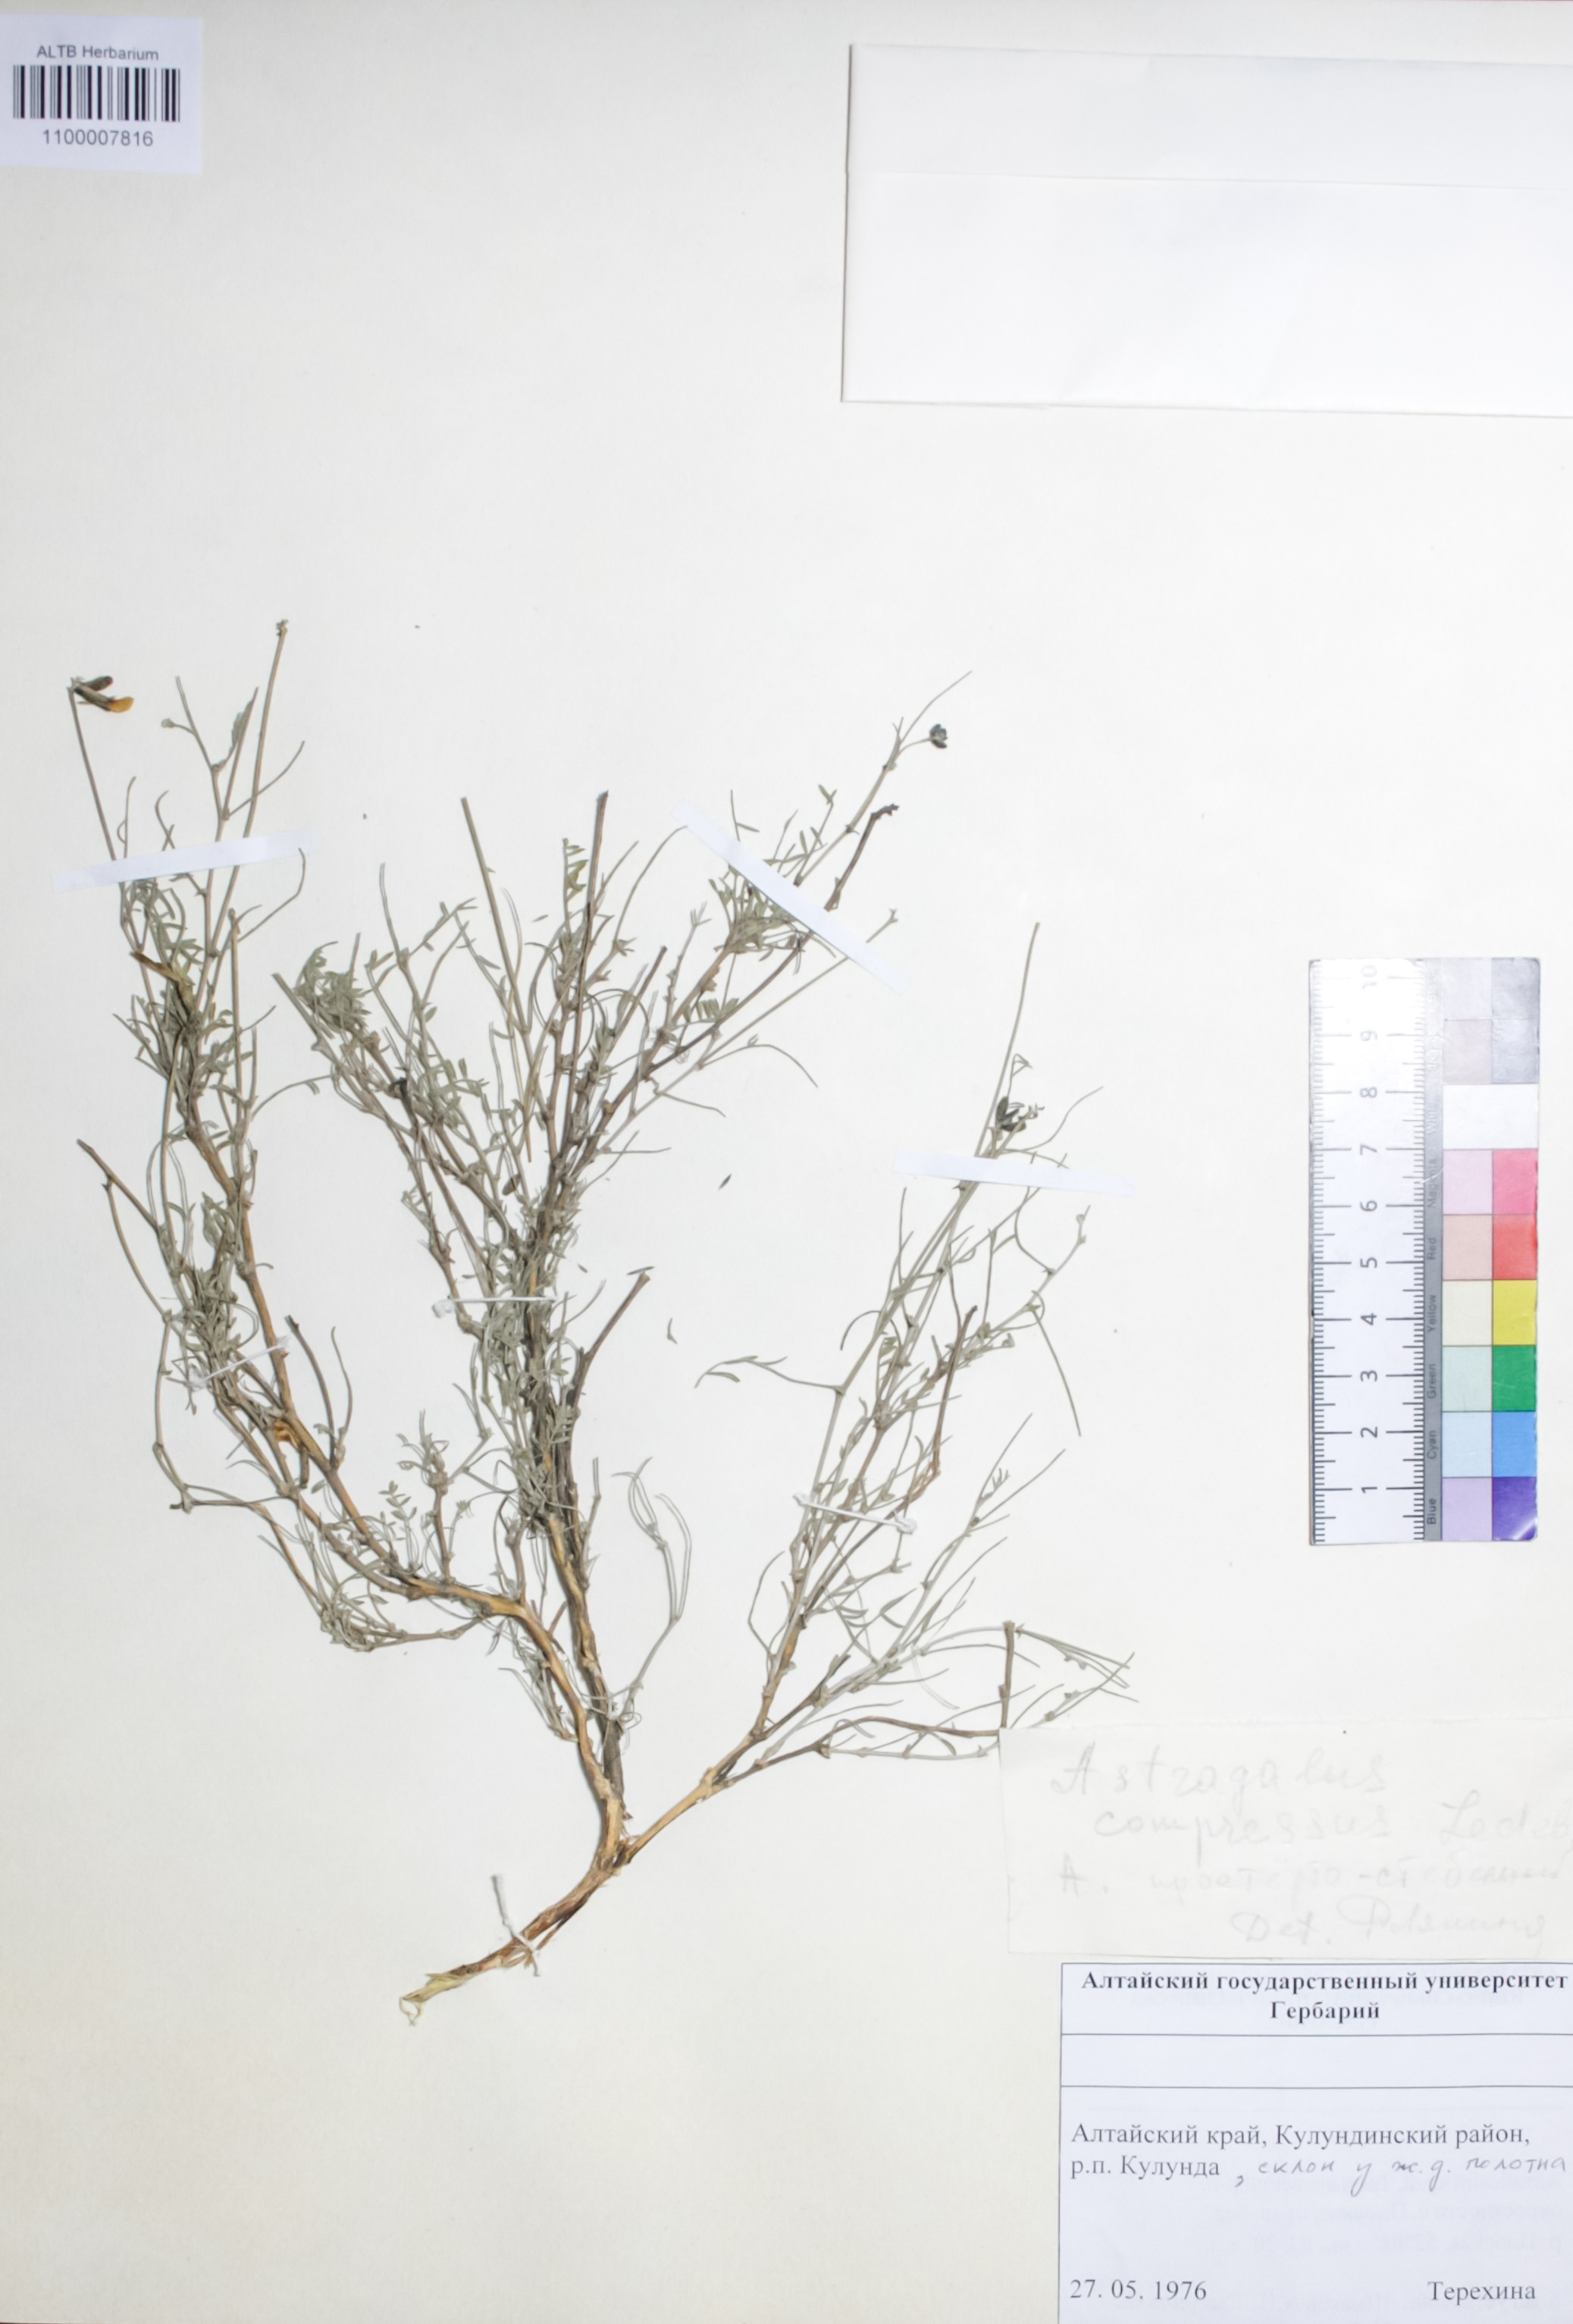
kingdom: Plantae
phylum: Tracheophyta
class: Magnoliopsida
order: Fabales
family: Fabaceae
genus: Astragalus
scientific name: Astragalus compressus
